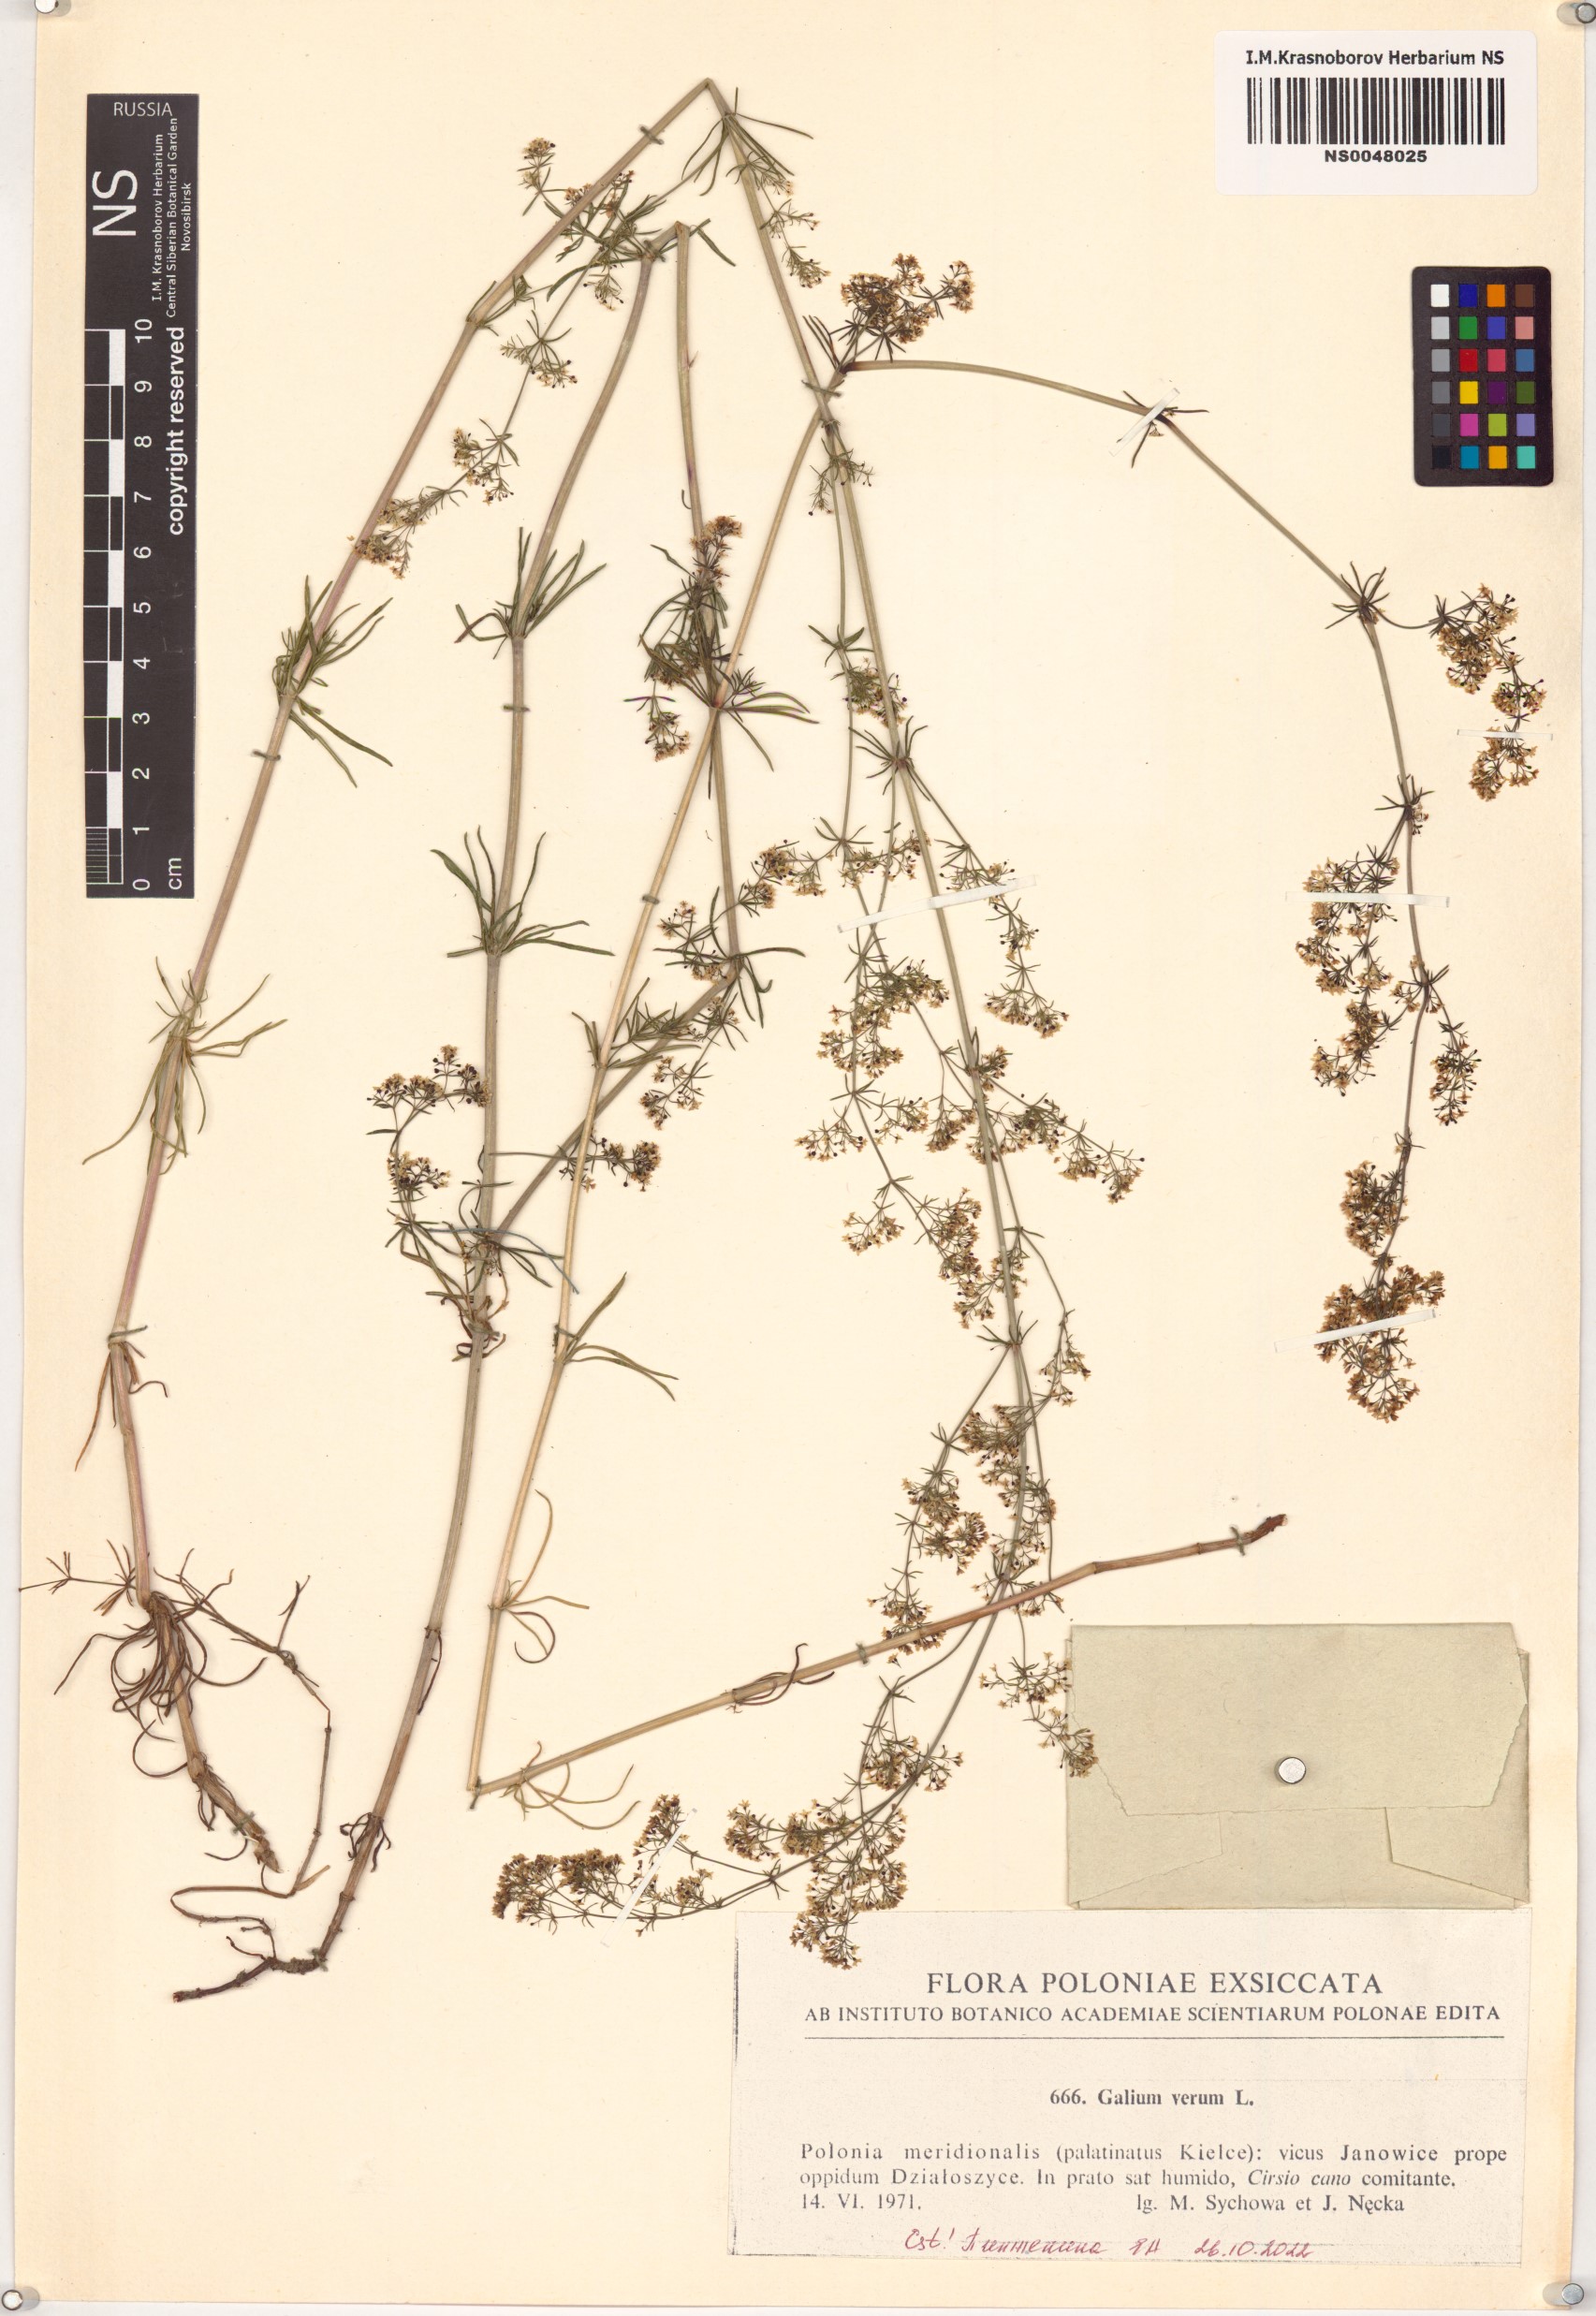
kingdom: Plantae
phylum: Tracheophyta
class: Magnoliopsida
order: Gentianales
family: Rubiaceae
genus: Galium
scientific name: Galium verum
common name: Lady's bedstraw
